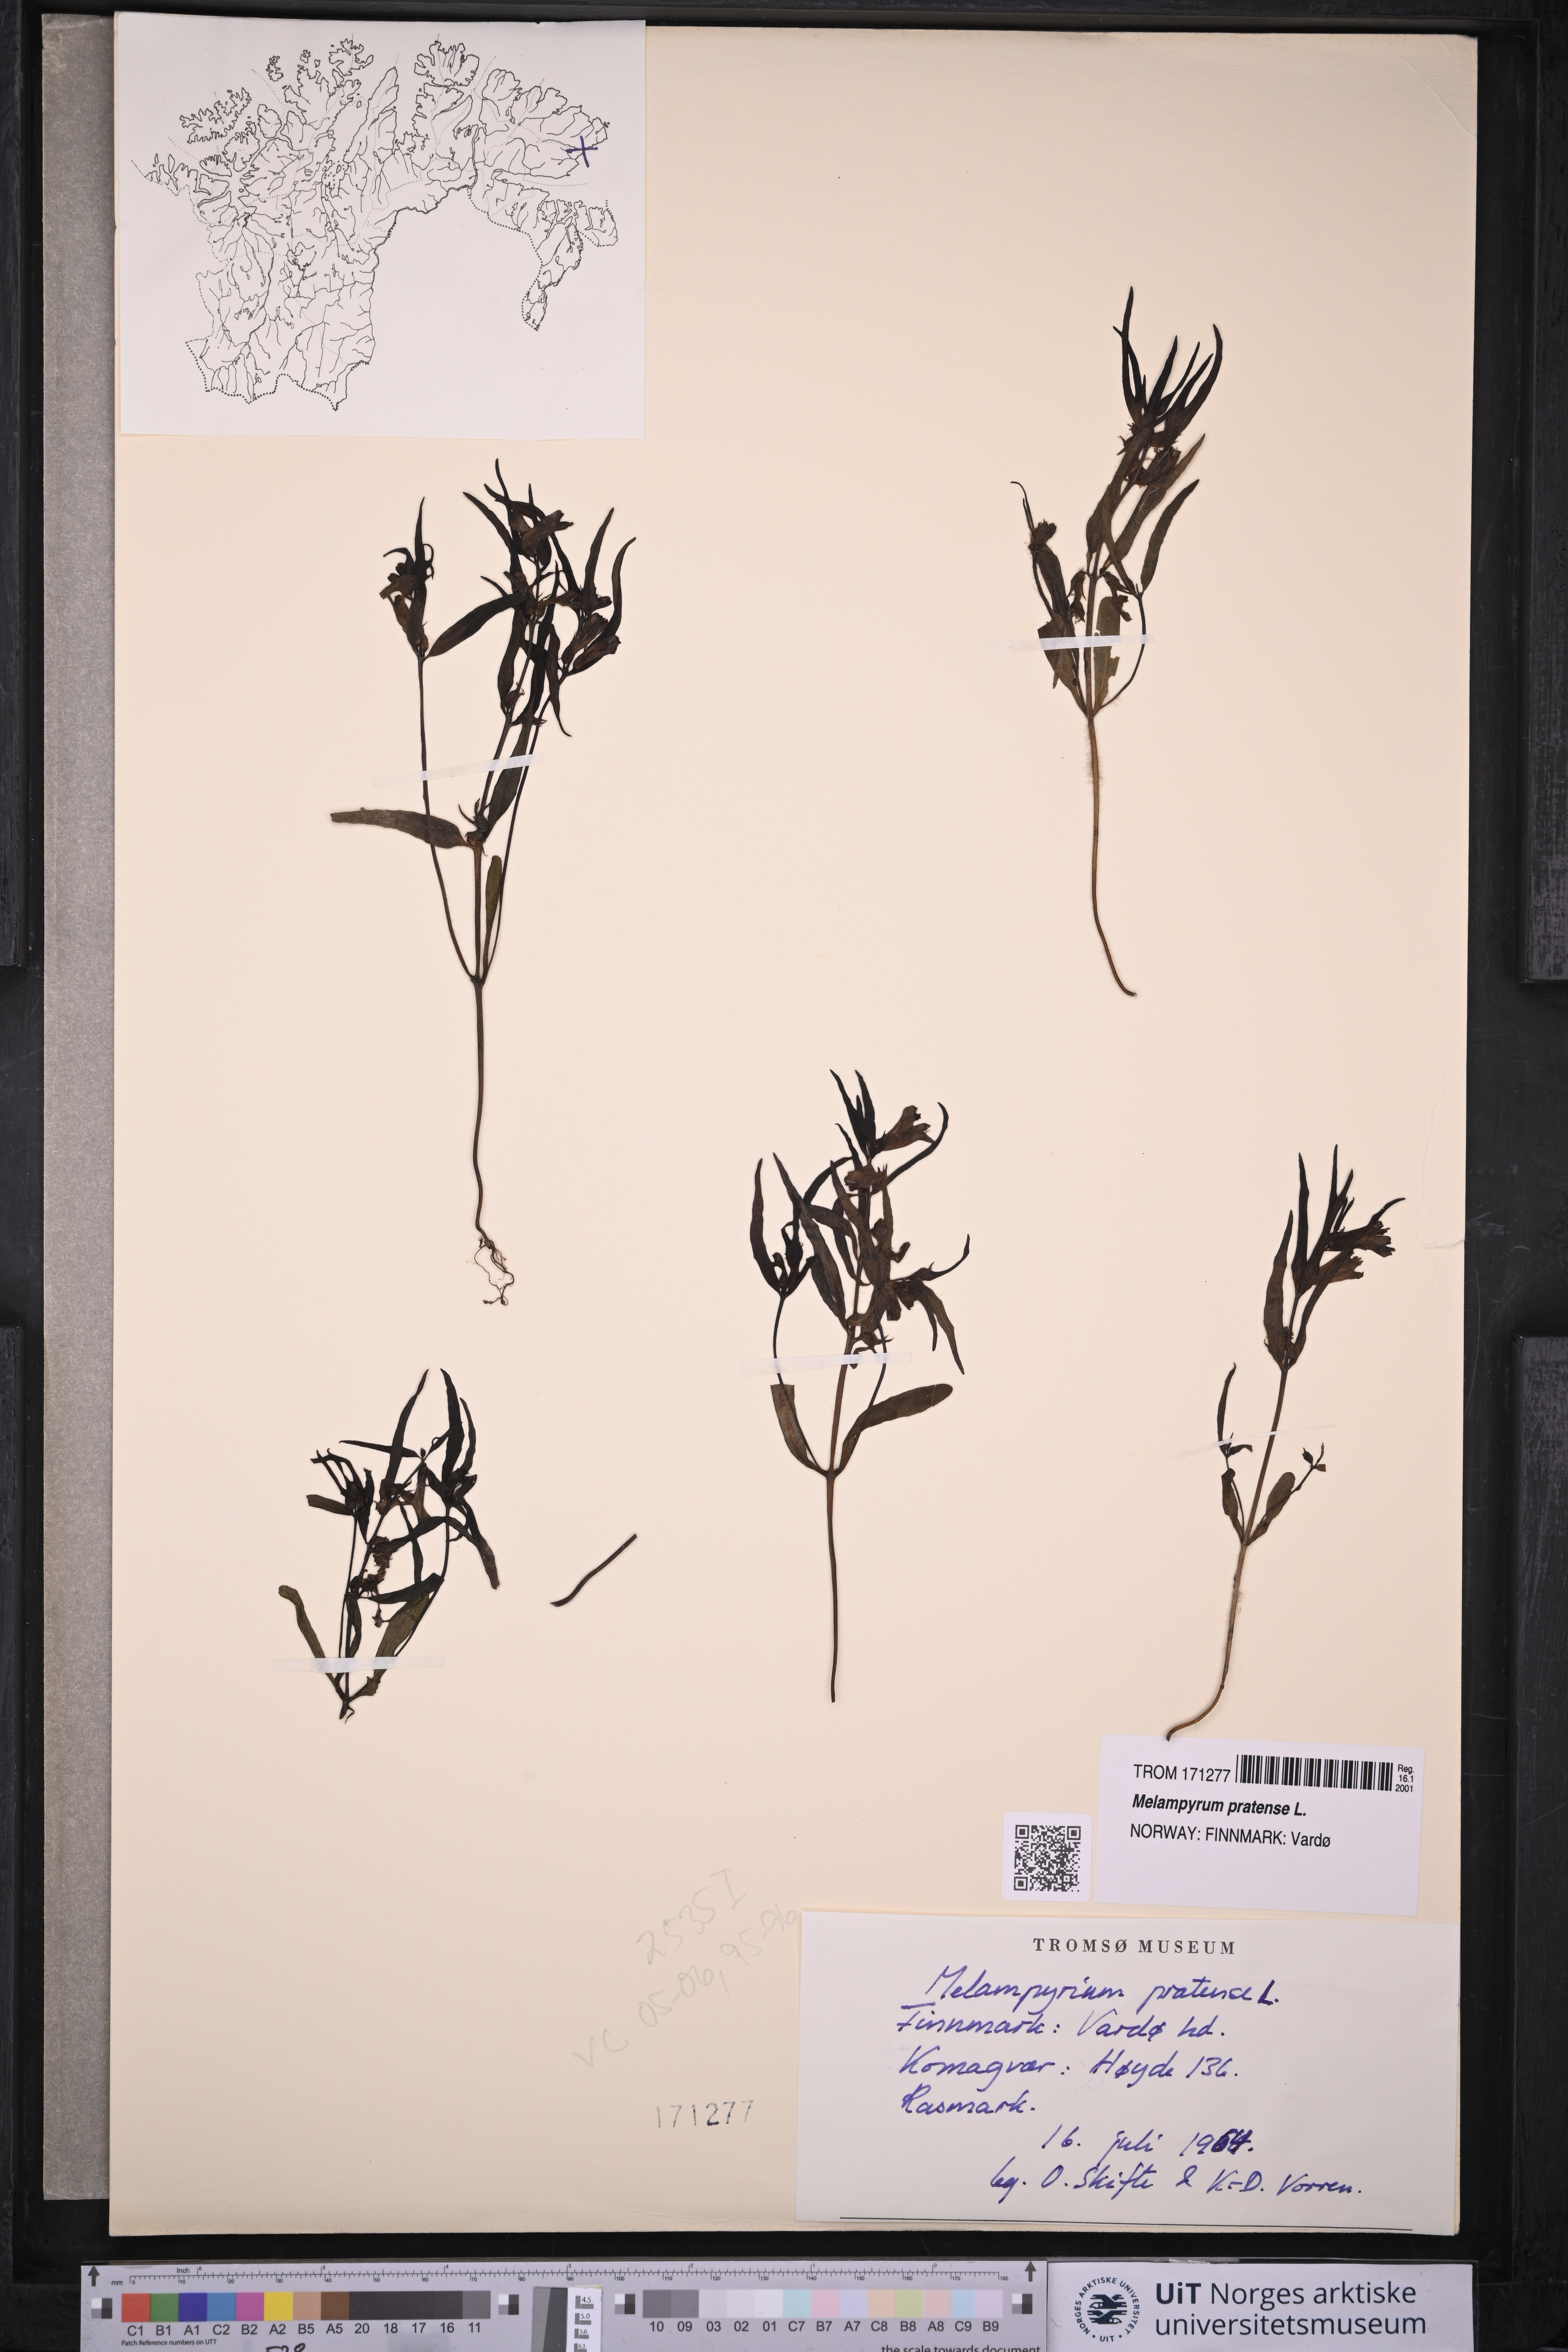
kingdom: Plantae
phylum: Tracheophyta
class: Magnoliopsida
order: Lamiales
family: Orobanchaceae
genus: Melampyrum
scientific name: Melampyrum pratense
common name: Common cow-wheat
